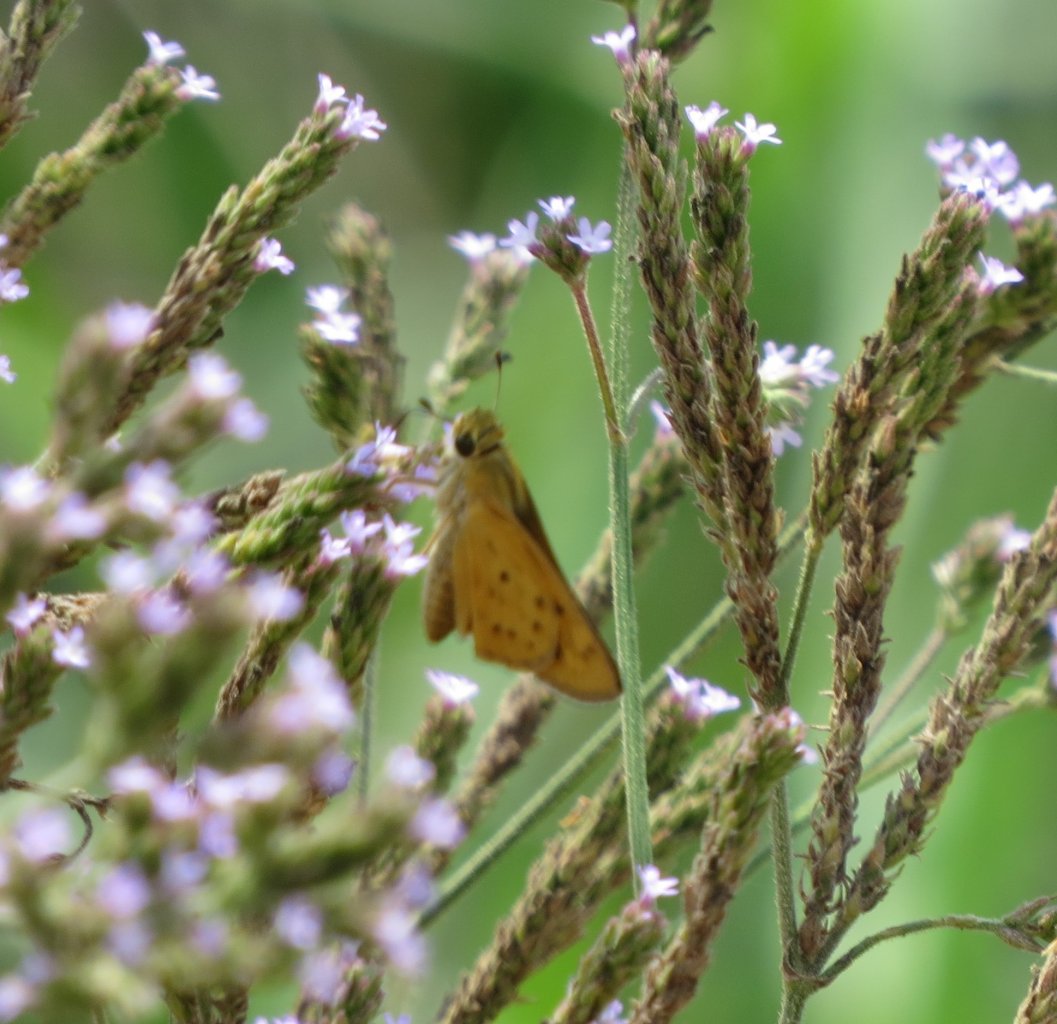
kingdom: Animalia
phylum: Arthropoda
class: Insecta
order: Lepidoptera
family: Hesperiidae
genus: Hylephila
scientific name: Hylephila phyleus
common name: Fiery Skipper
